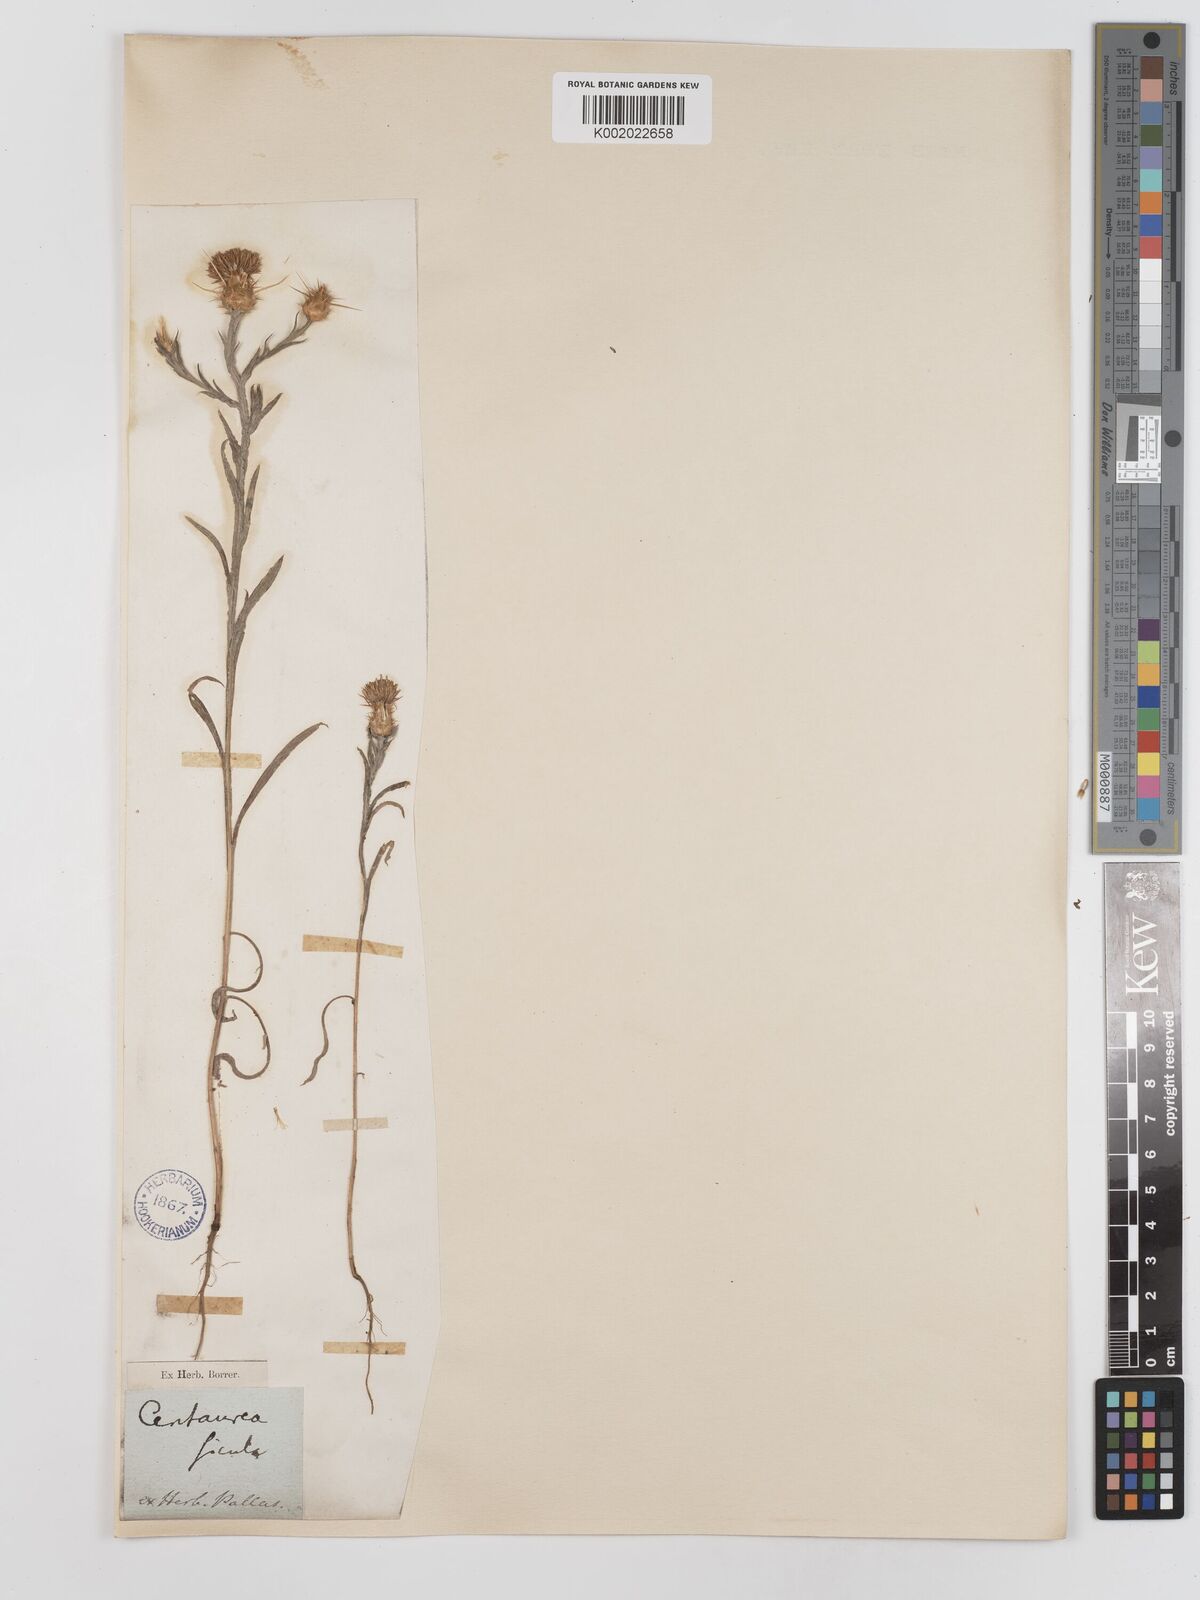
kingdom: Plantae
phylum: Tracheophyta
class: Magnoliopsida
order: Asterales
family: Asteraceae
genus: Centaurea
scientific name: Centaurea solstitialis
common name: Yellow star-thistle
